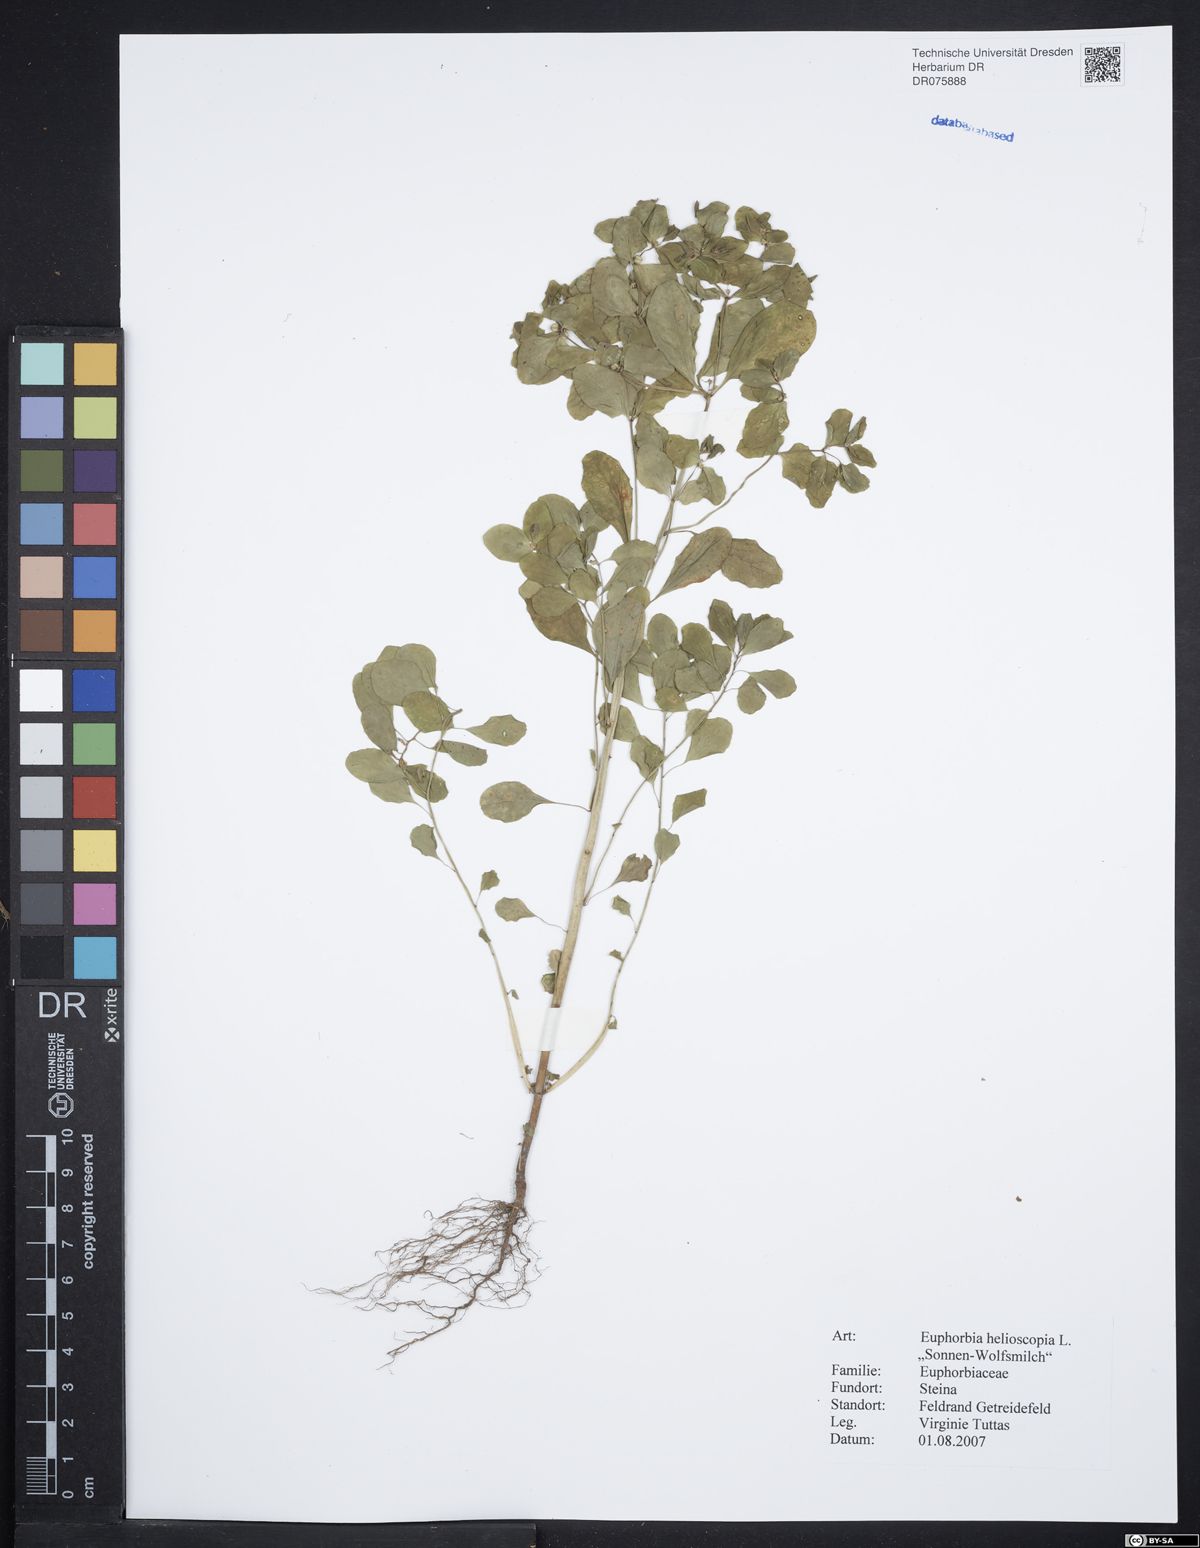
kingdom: Plantae
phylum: Tracheophyta
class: Magnoliopsida
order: Malpighiales
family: Euphorbiaceae
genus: Euphorbia
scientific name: Euphorbia helioscopia
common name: Sun spurge
